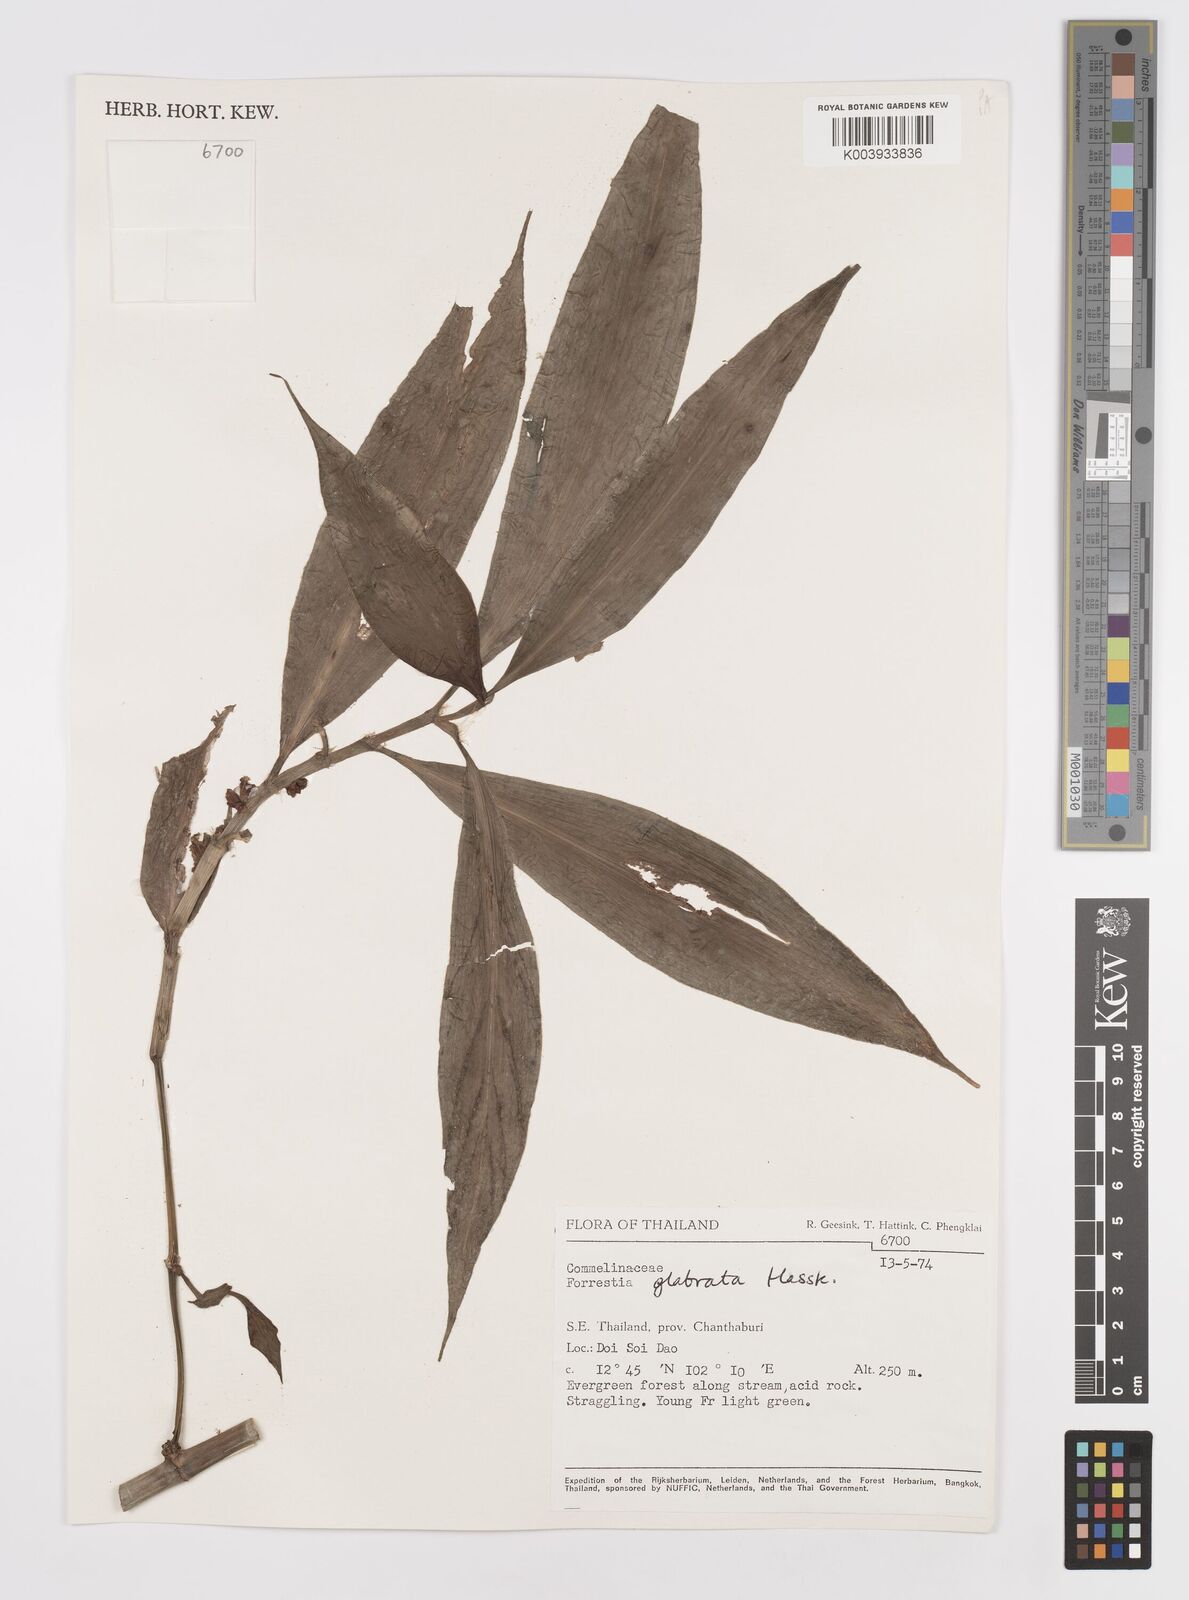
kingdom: Plantae
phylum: Tracheophyta
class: Liliopsida
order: Commelinales
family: Commelinaceae
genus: Amischotolype
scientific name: Amischotolype glabrata
